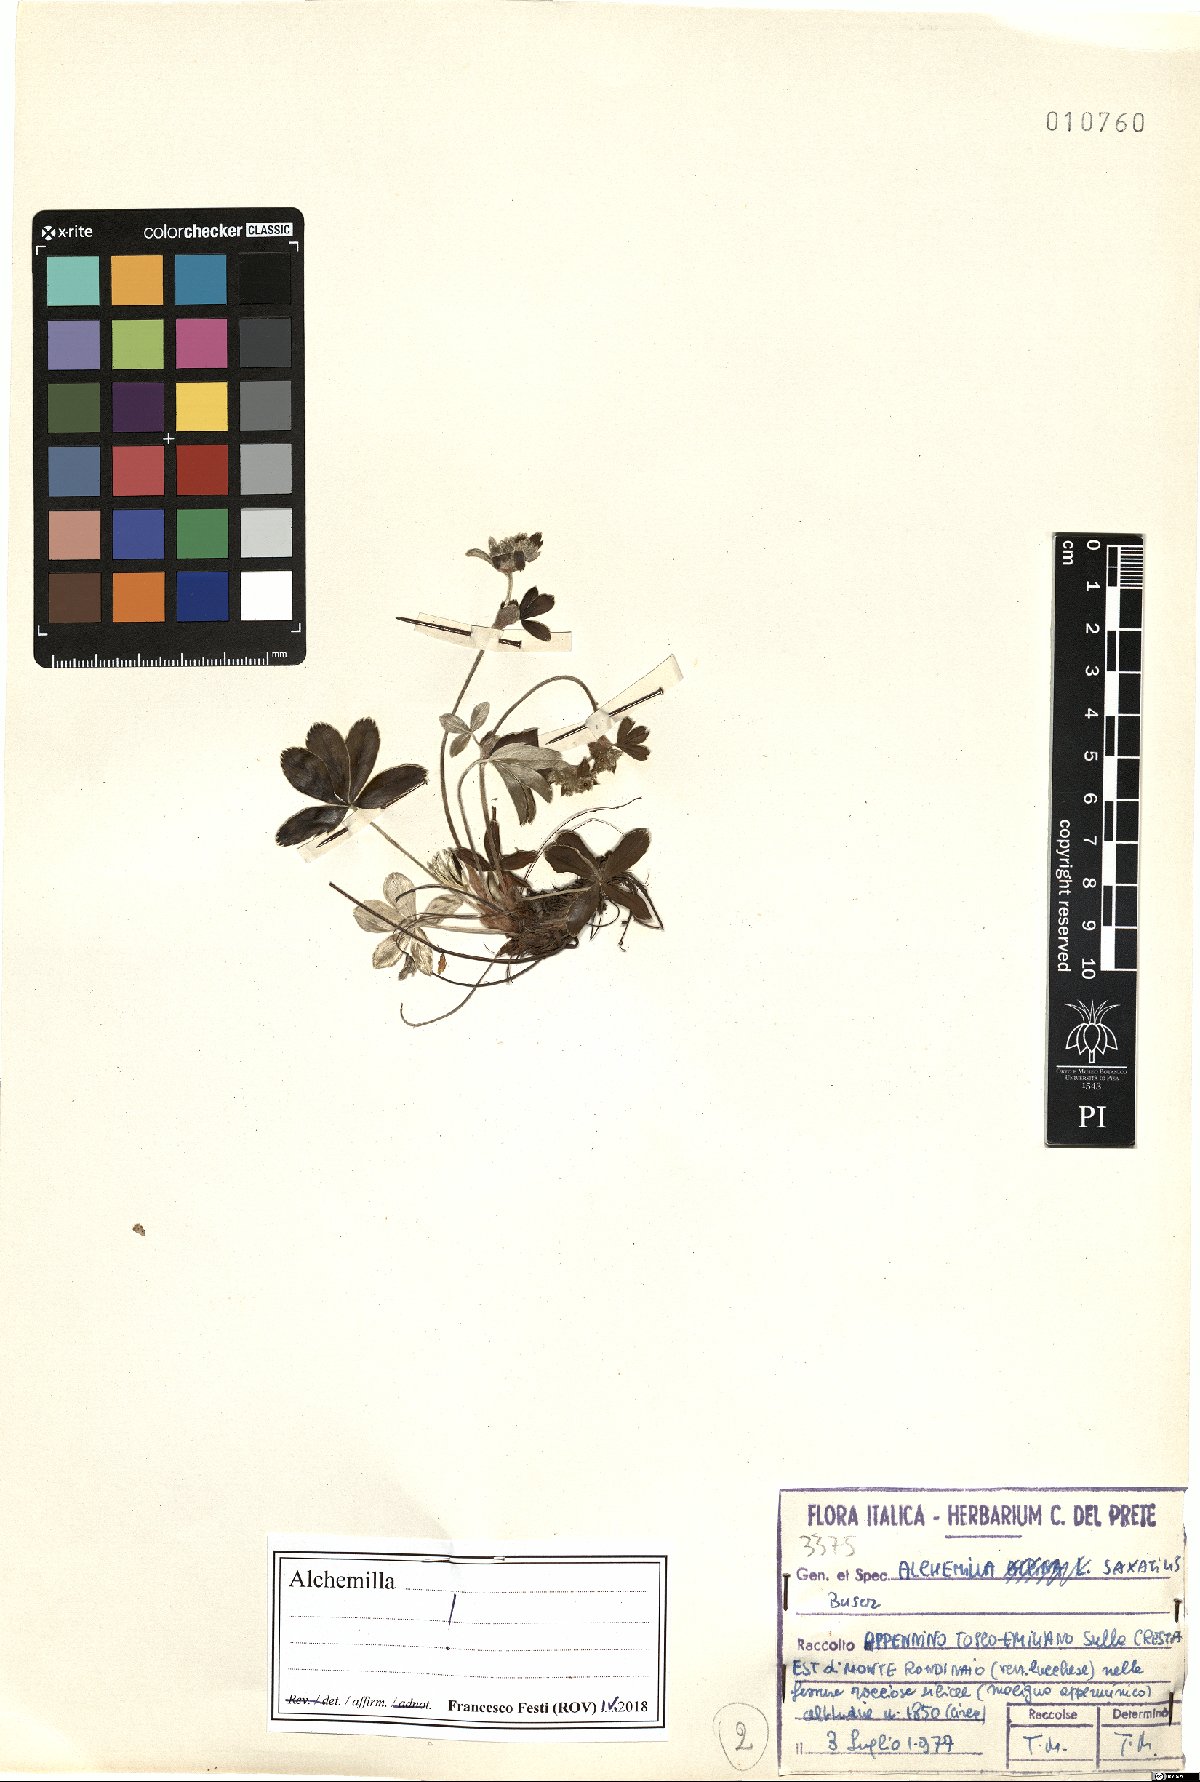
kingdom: Plantae
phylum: Tracheophyta
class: Magnoliopsida
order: Rosales
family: Rosaceae
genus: Alchemilla
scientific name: Alchemilla saxatilis
